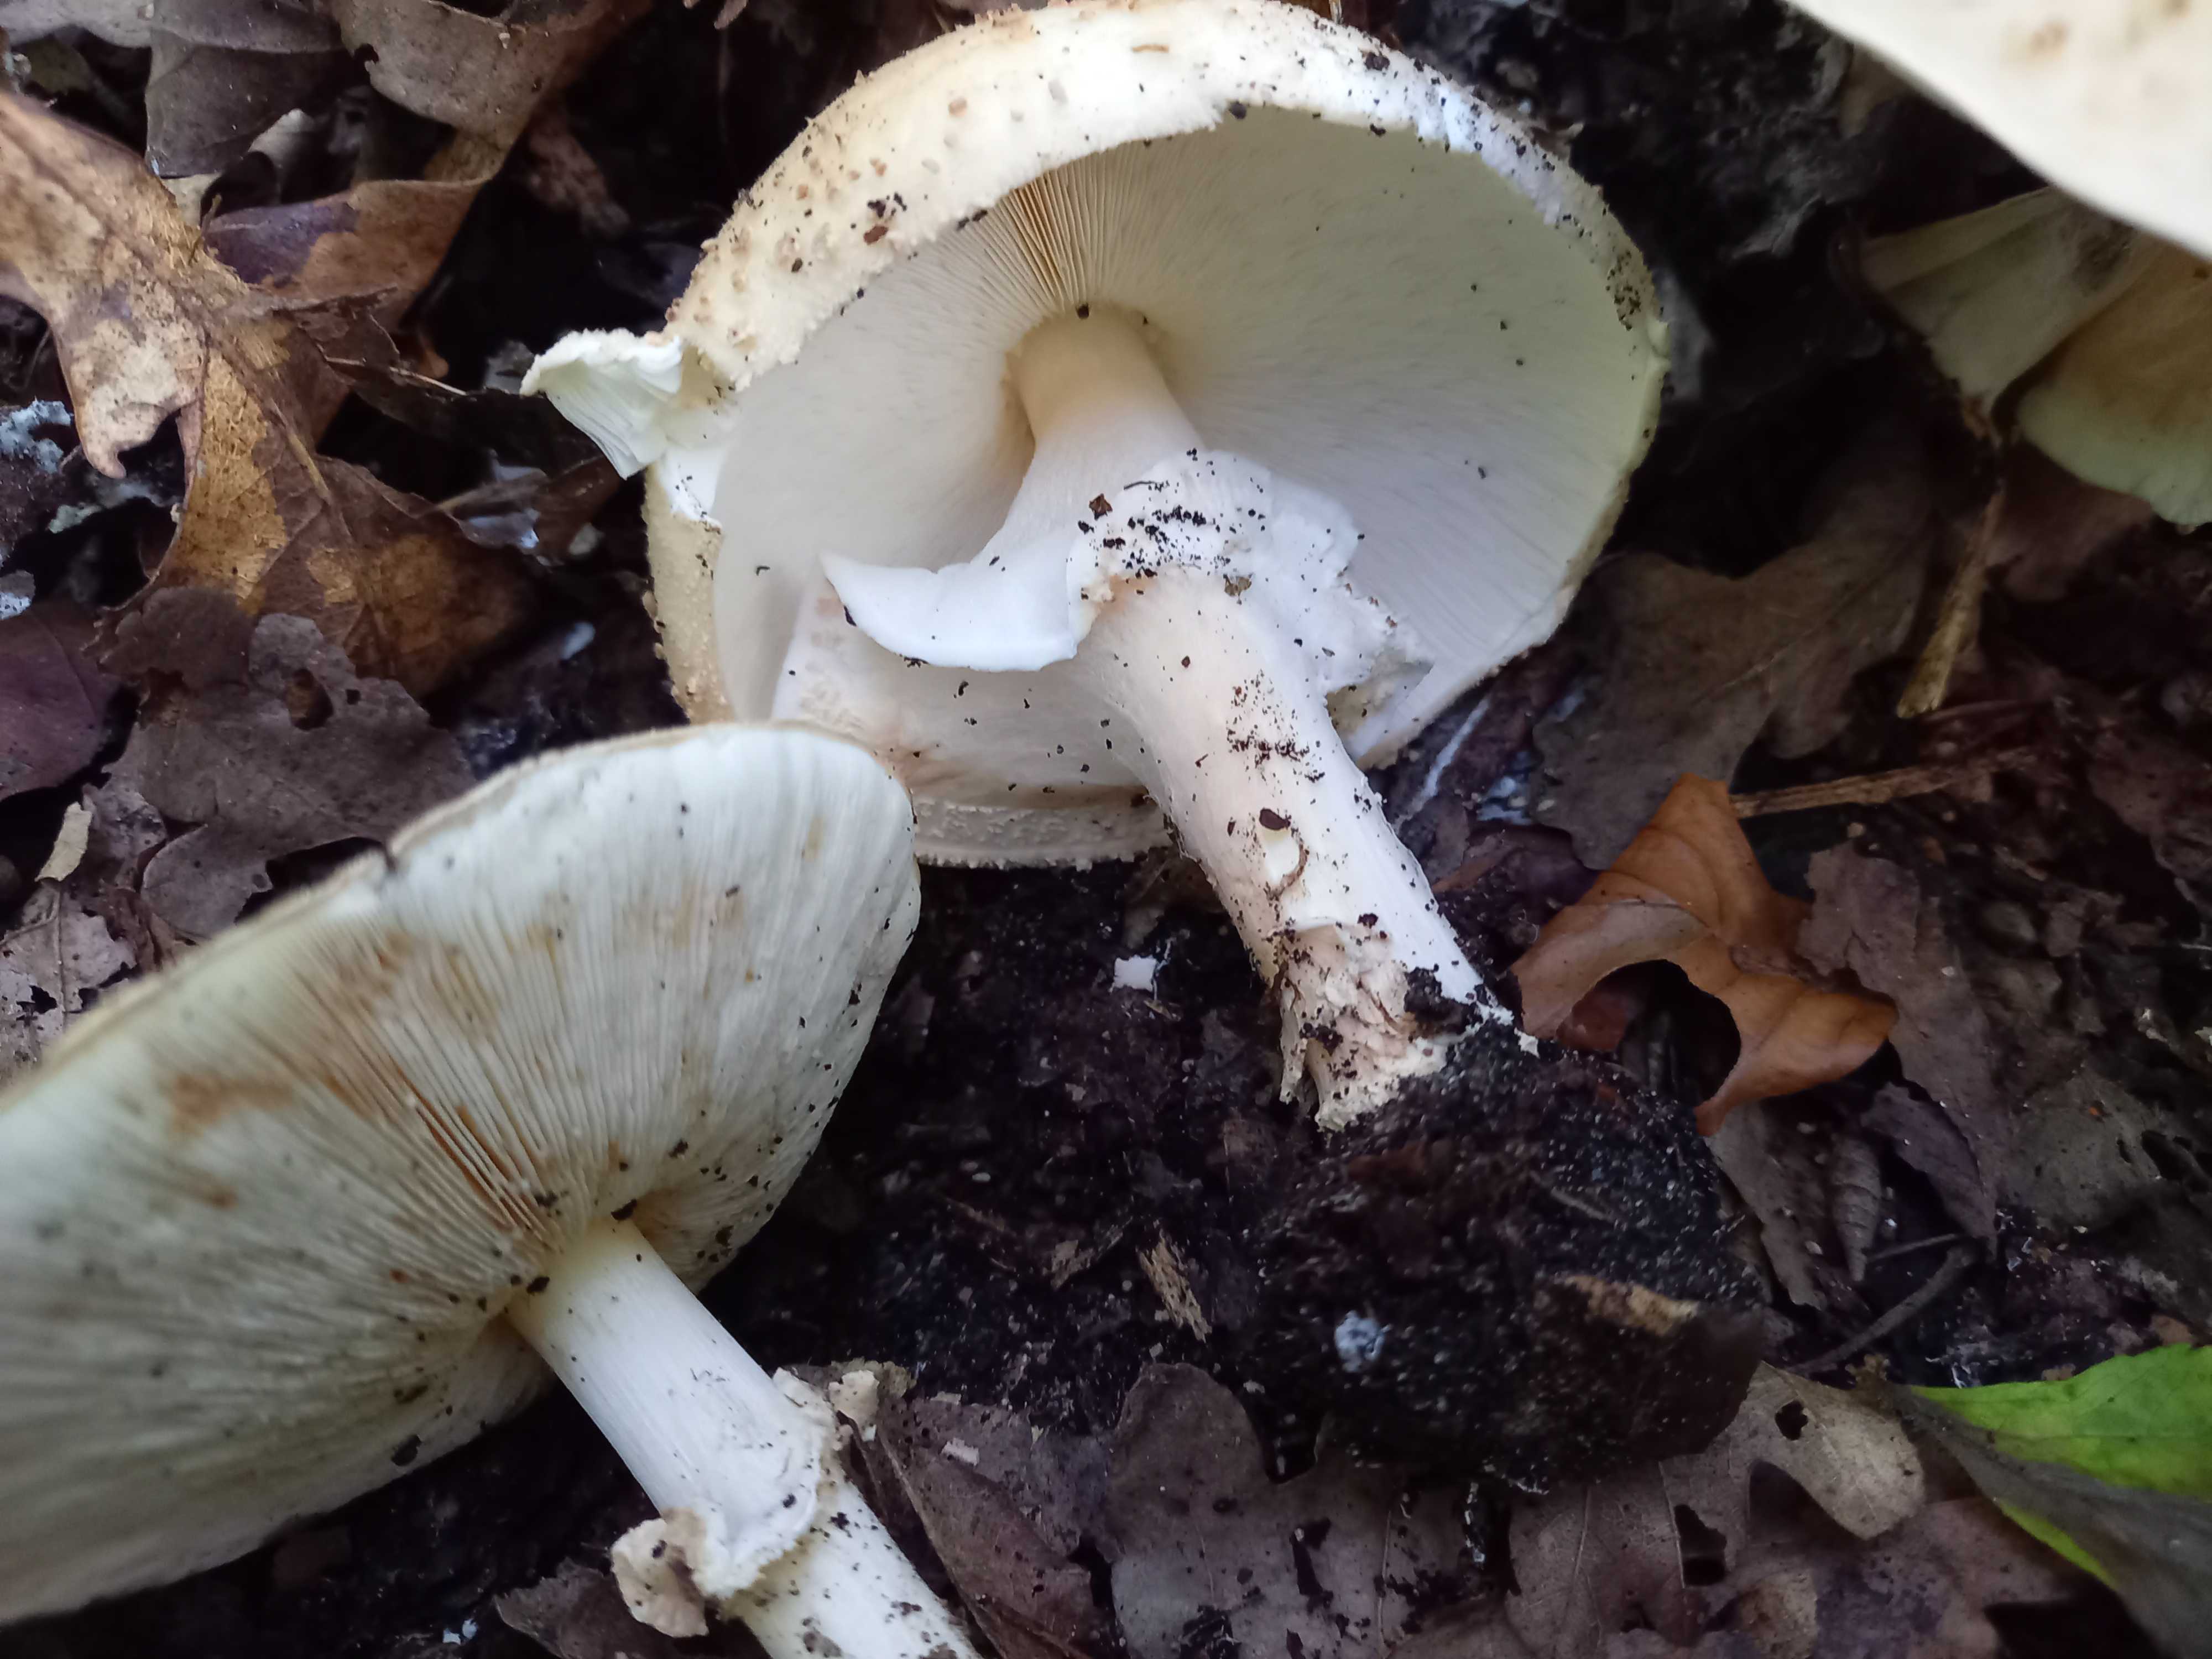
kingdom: Fungi
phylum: Basidiomycota
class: Agaricomycetes
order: Agaricales
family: Agaricaceae
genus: Echinoderma
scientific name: Echinoderma asperum
